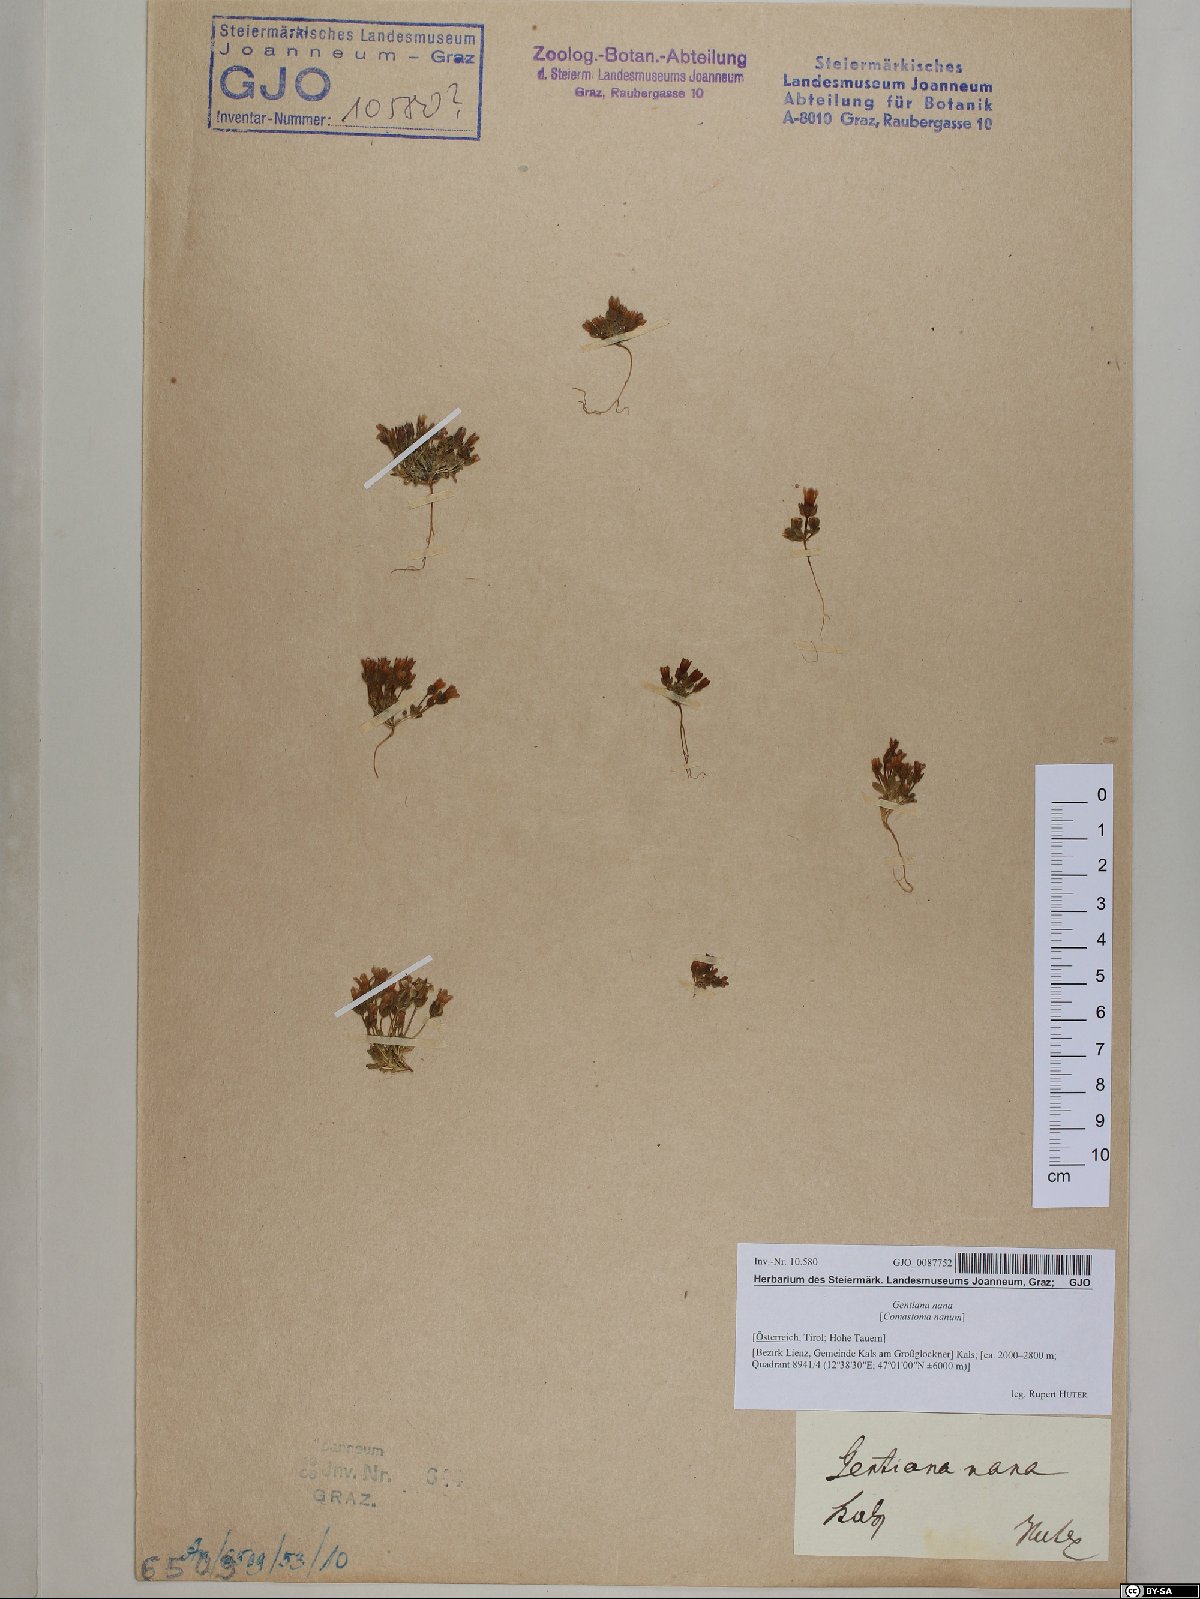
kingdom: Plantae
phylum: Tracheophyta
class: Magnoliopsida
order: Gentianales
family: Gentianaceae
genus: Comastoma
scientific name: Comastoma nanum
